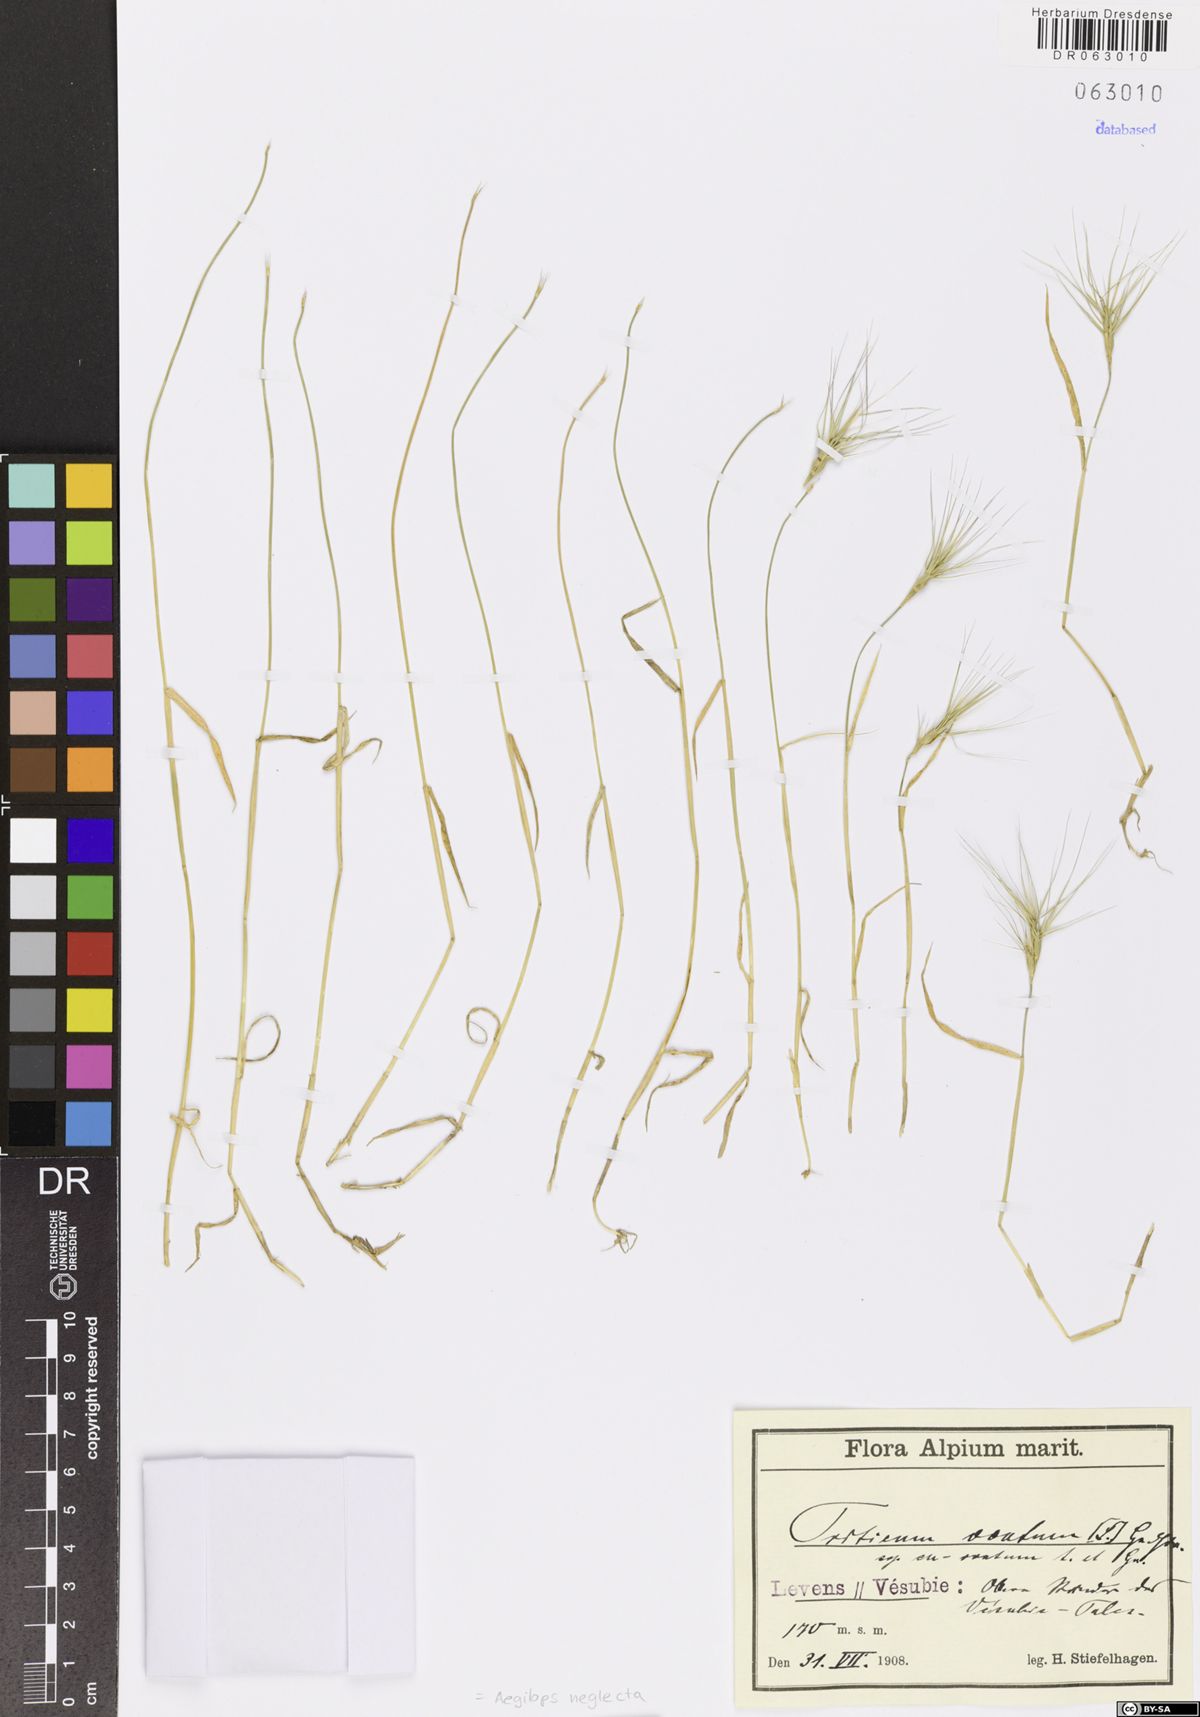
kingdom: Plantae
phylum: Tracheophyta
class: Liliopsida
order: Poales
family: Poaceae
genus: Aegilops
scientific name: Aegilops neglecta
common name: Three-awn goat grass
